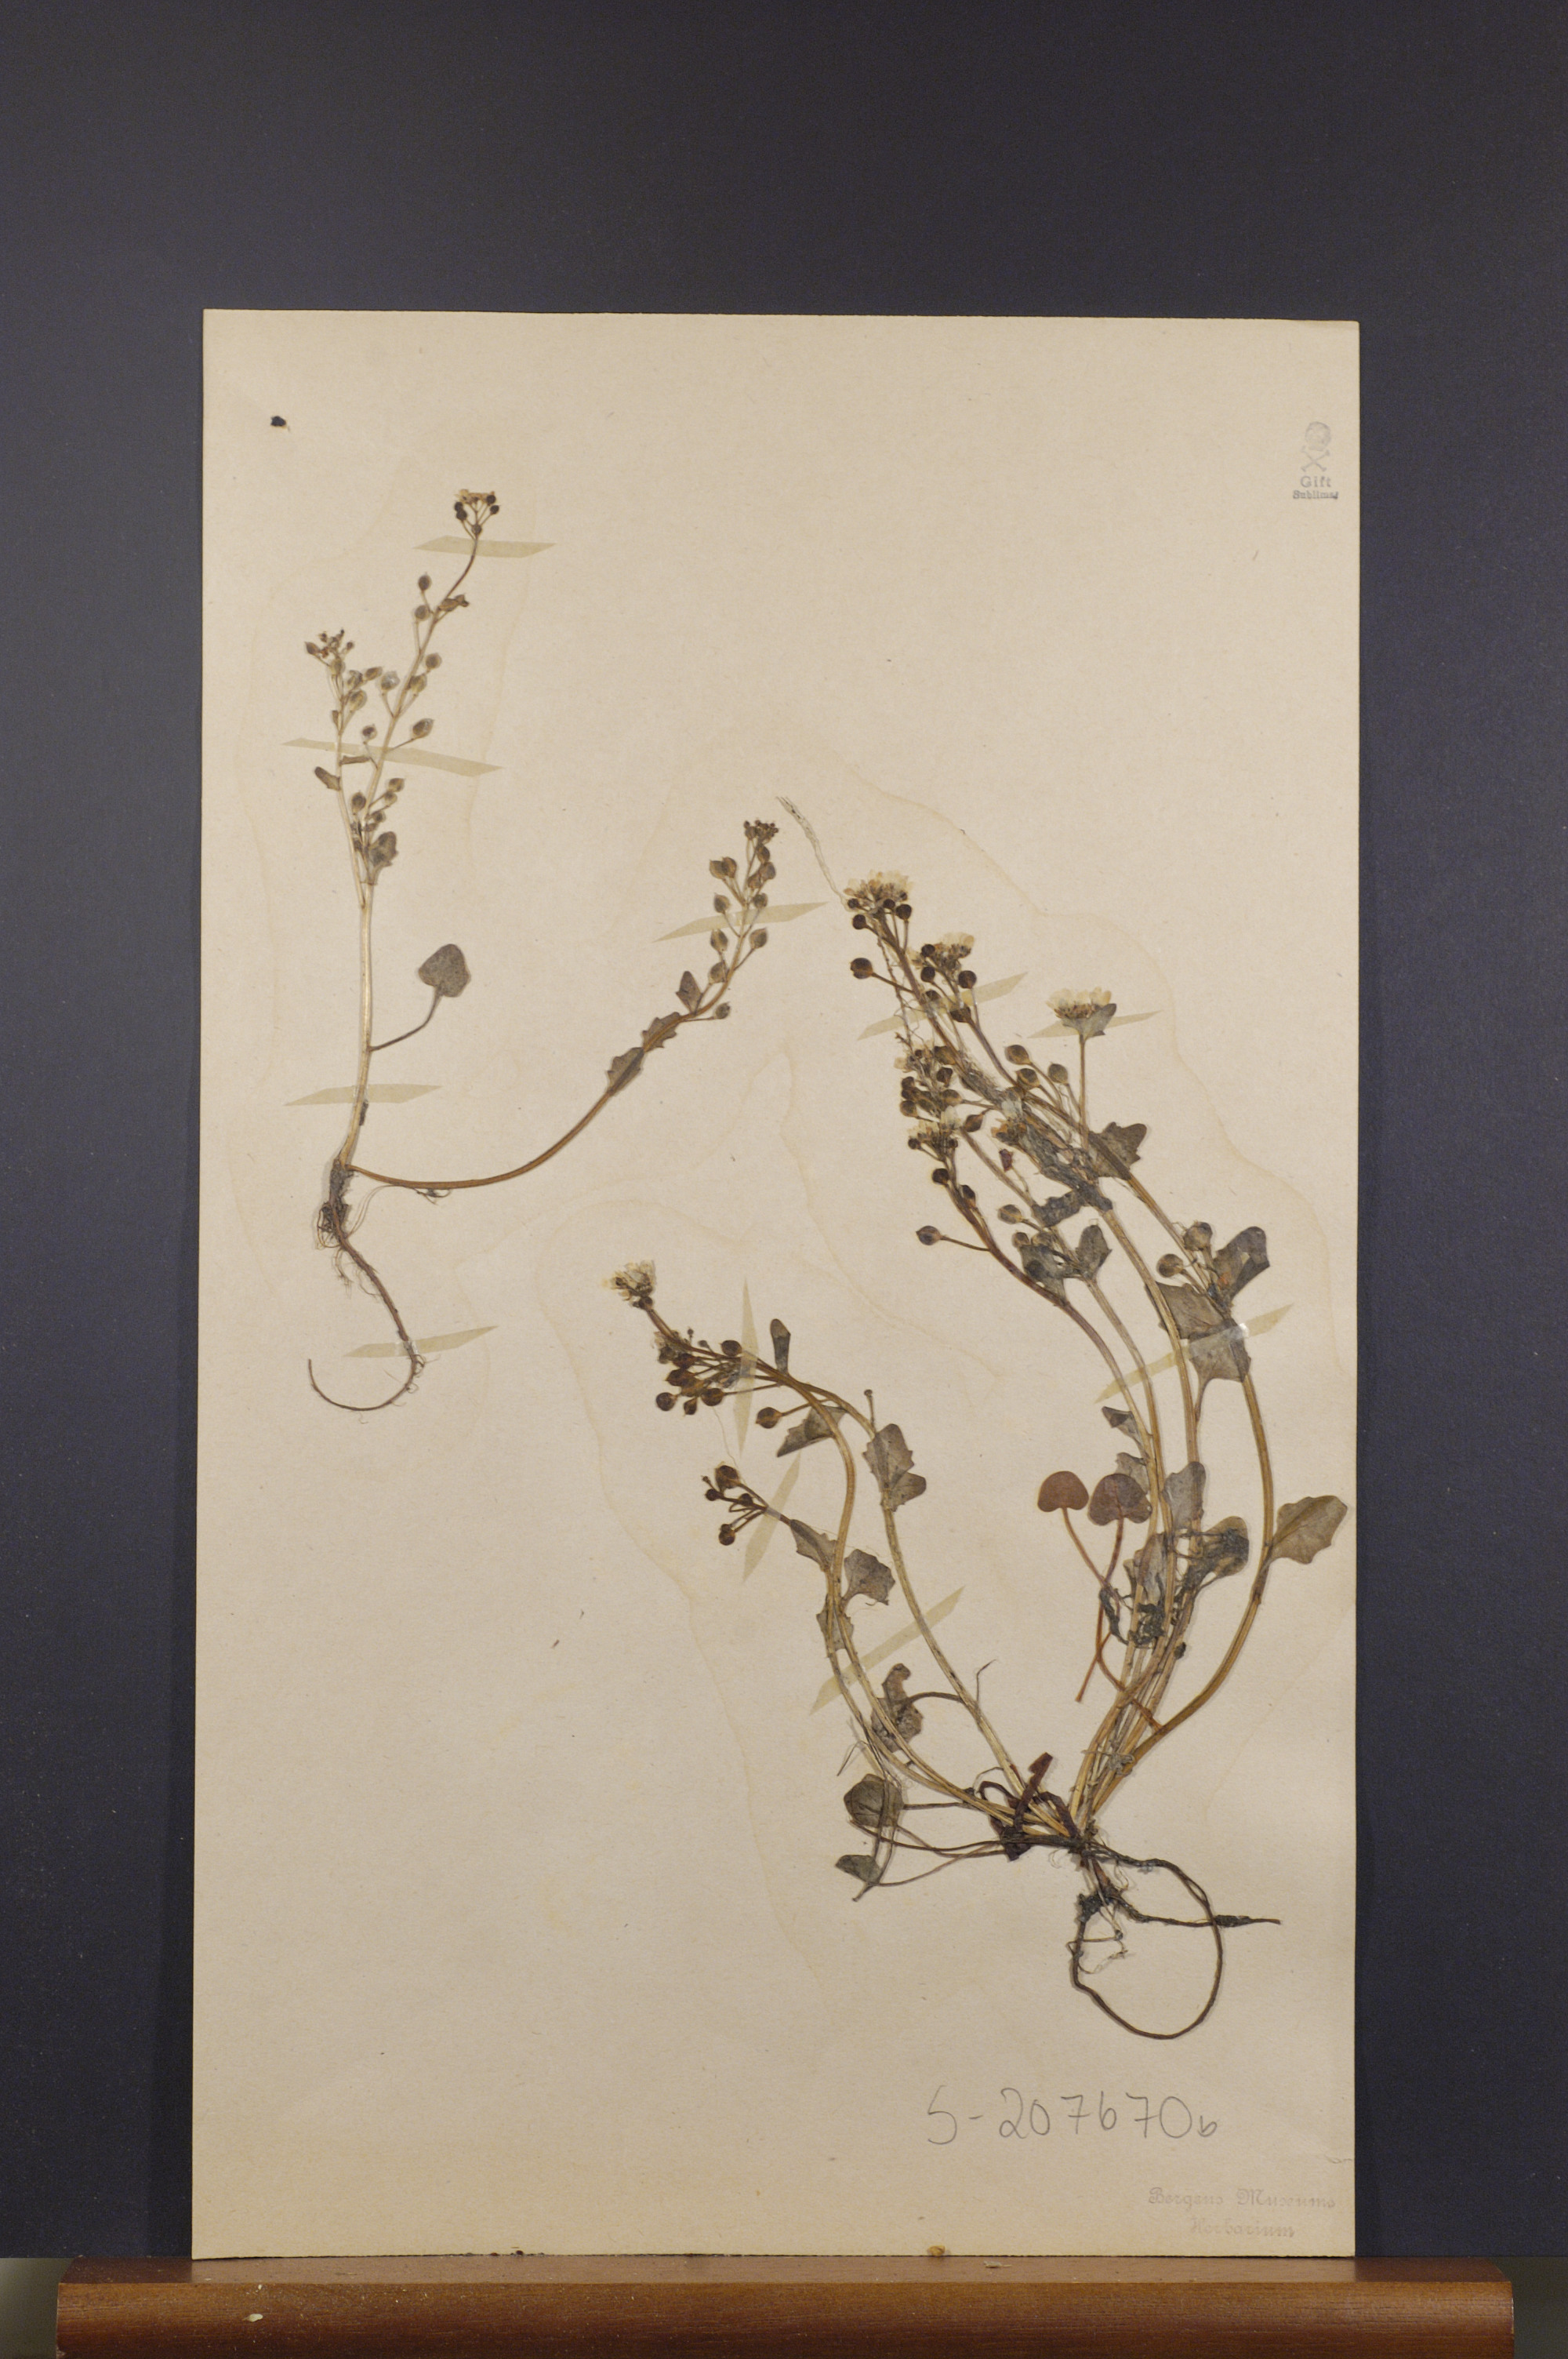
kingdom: Plantae
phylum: Tracheophyta
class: Magnoliopsida
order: Brassicales
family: Brassicaceae
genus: Cochlearia
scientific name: Cochlearia officinalis
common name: Scurvy-grass
